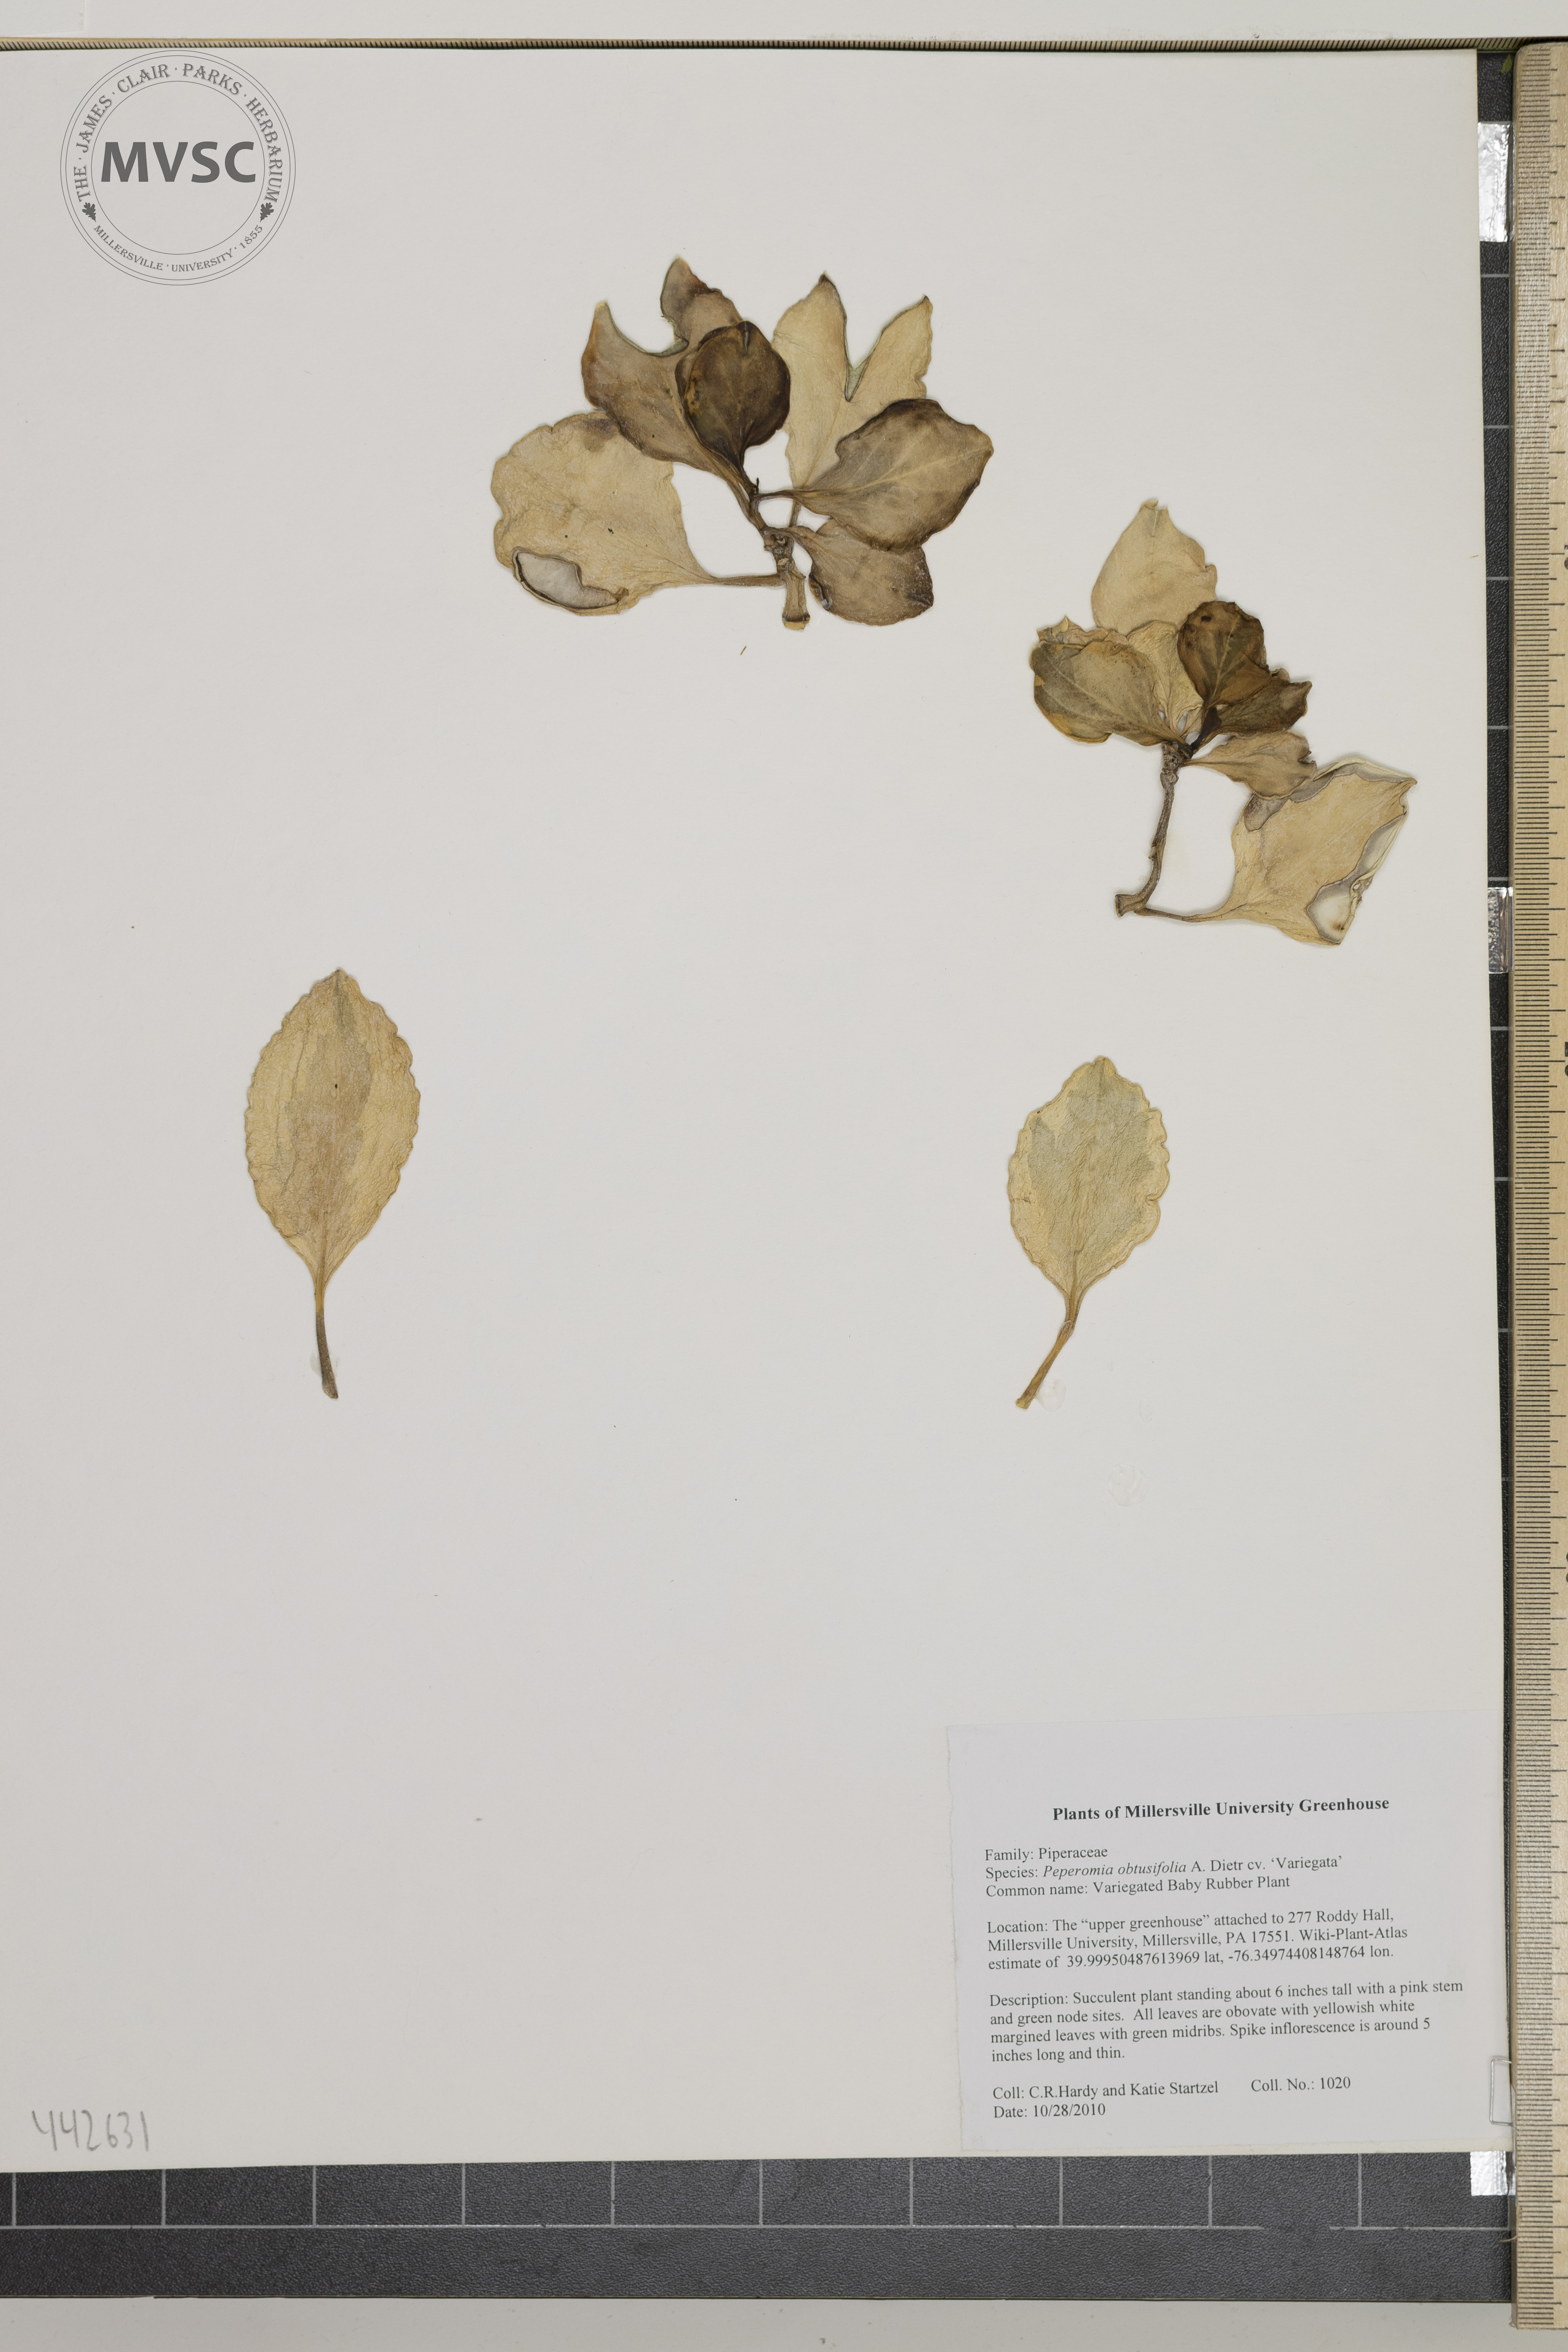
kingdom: Plantae
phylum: Tracheophyta
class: Magnoliopsida
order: Piperales
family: Piperaceae
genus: Peperomia
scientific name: Peperomia obtusifolia
